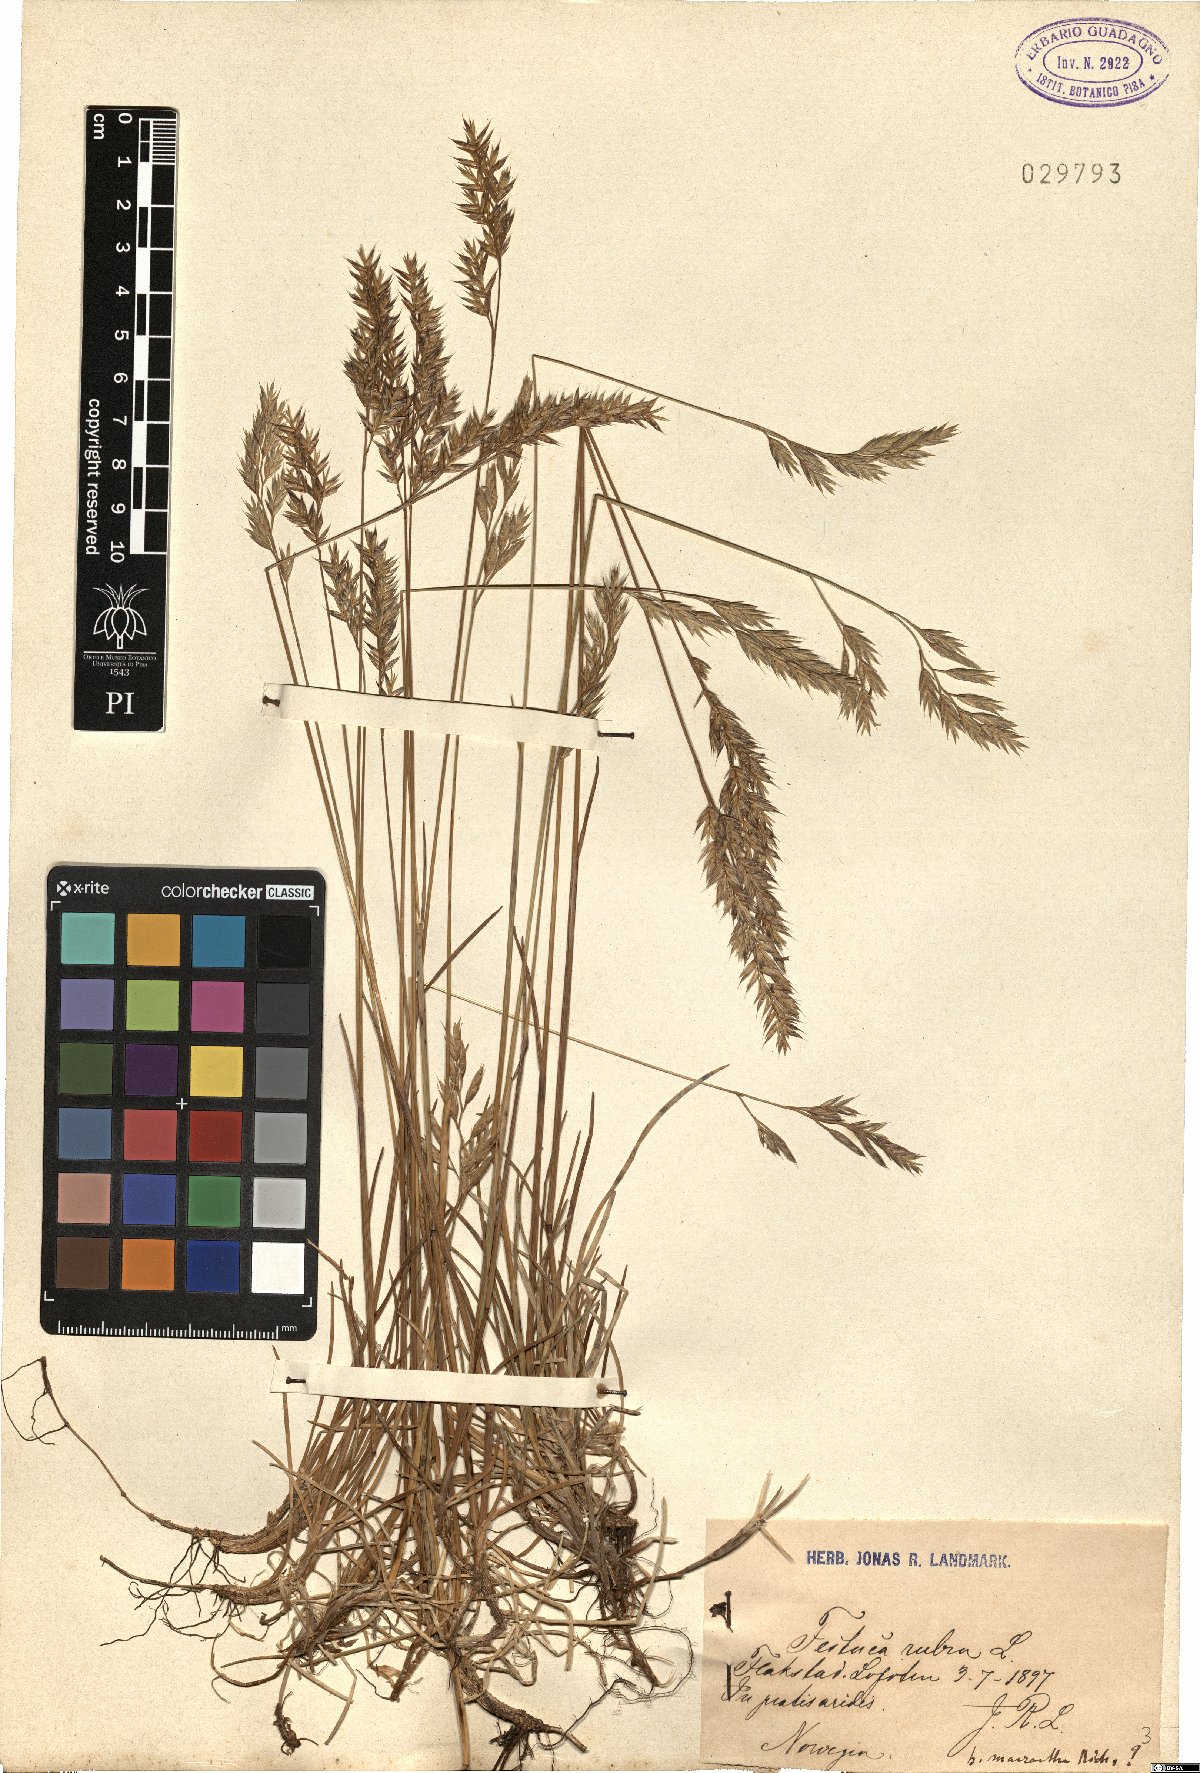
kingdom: Plantae
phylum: Tracheophyta
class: Liliopsida
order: Poales
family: Poaceae
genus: Festuca
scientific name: Festuca rubra
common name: Red fescue
